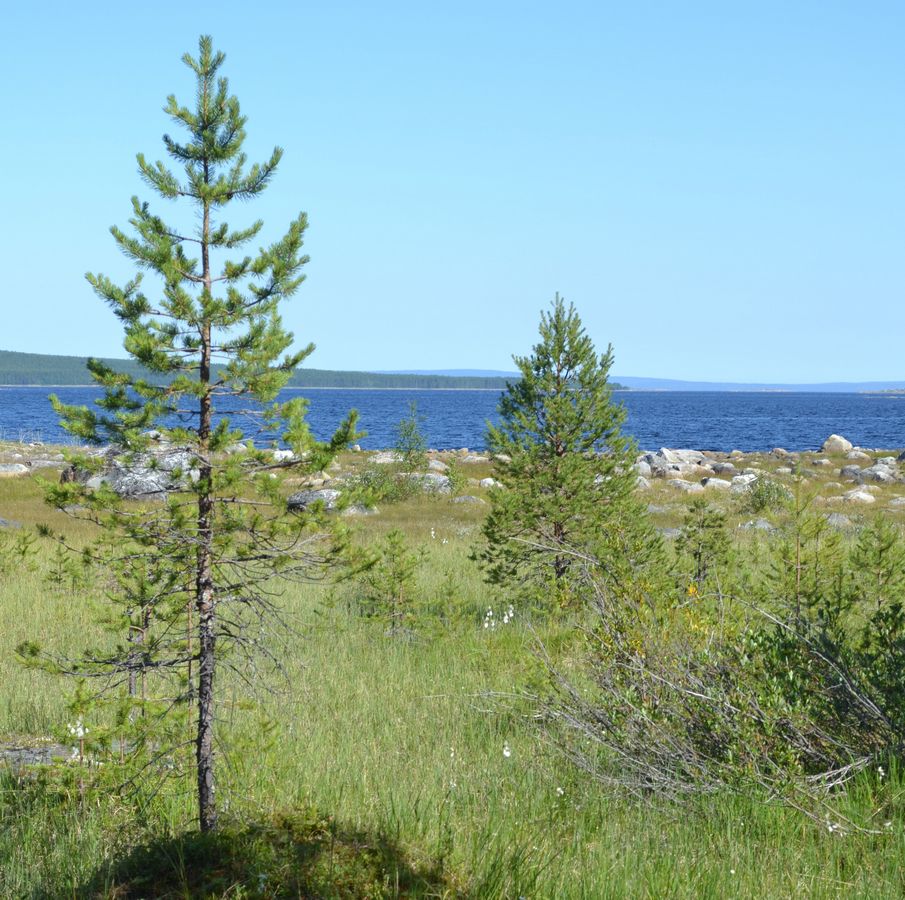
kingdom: Plantae
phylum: Tracheophyta
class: Pinopsida
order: Pinales
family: Pinaceae
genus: Pinus
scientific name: Pinus sylvestris
